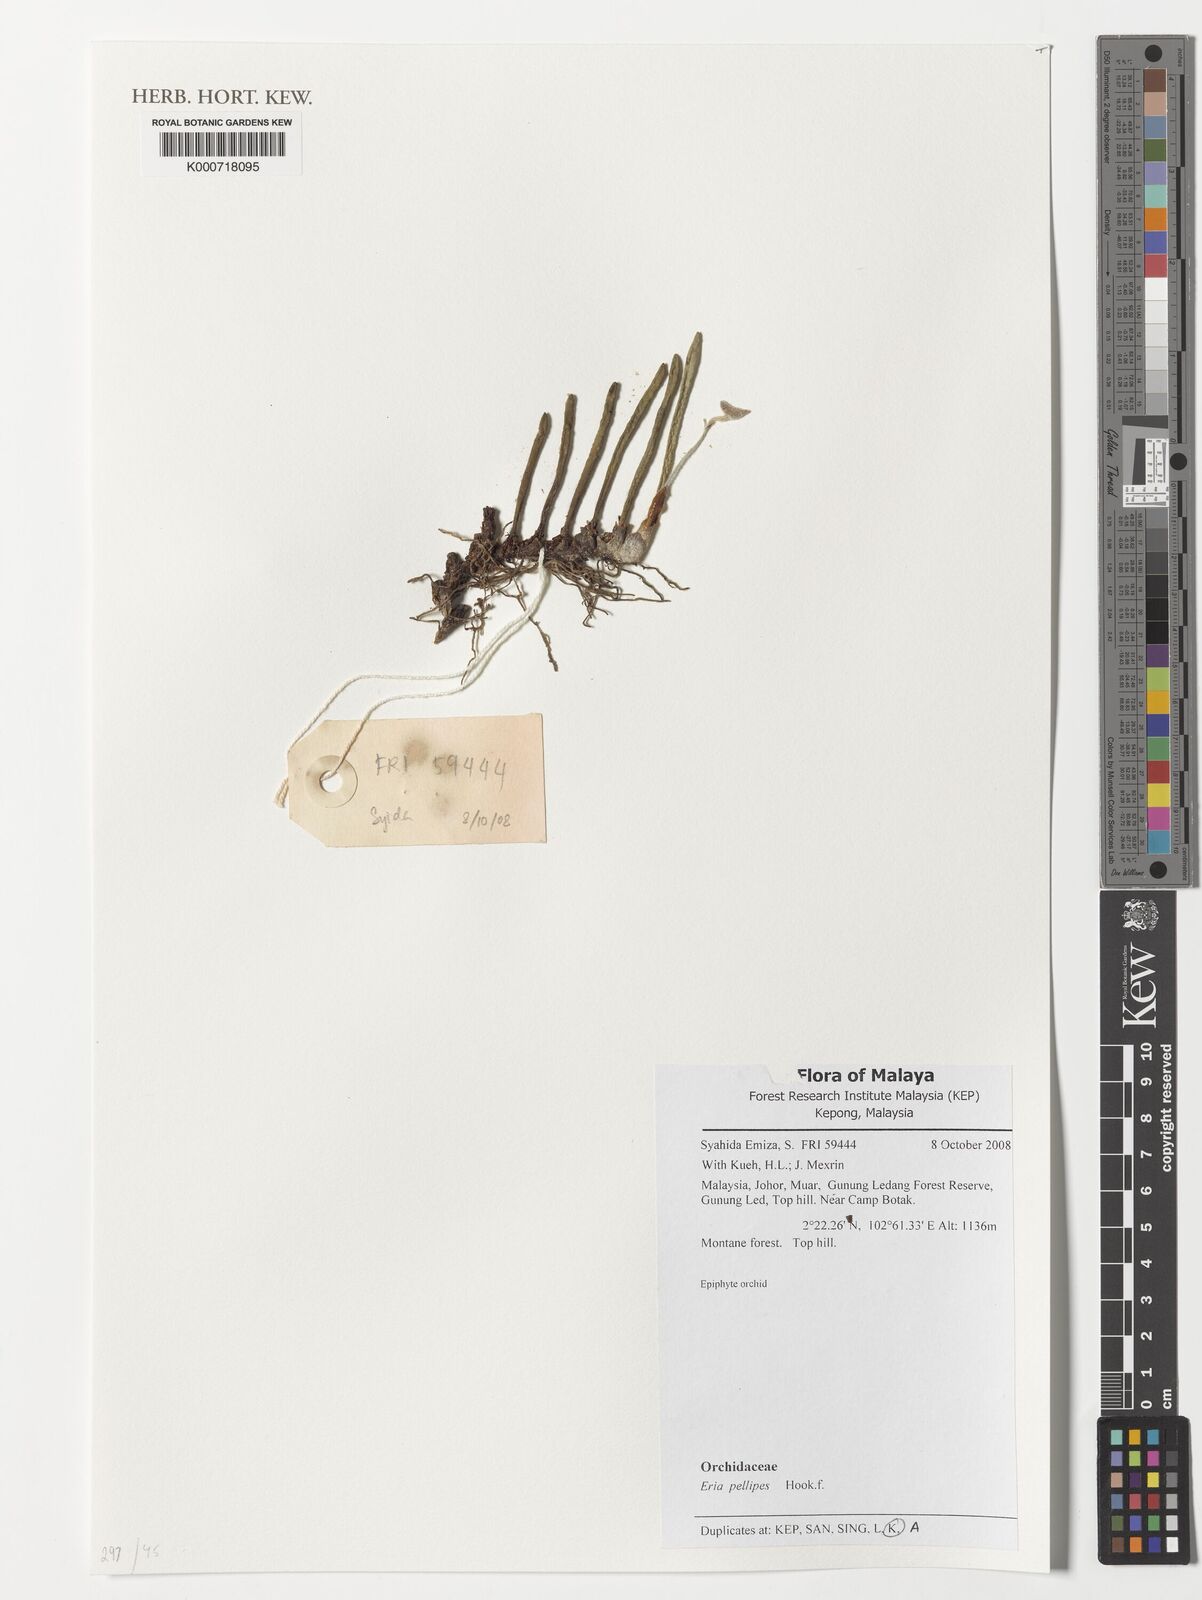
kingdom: Plantae
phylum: Tracheophyta
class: Liliopsida
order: Asparagales
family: Orchidaceae
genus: Strongyleria
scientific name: Strongyleria pellipes
